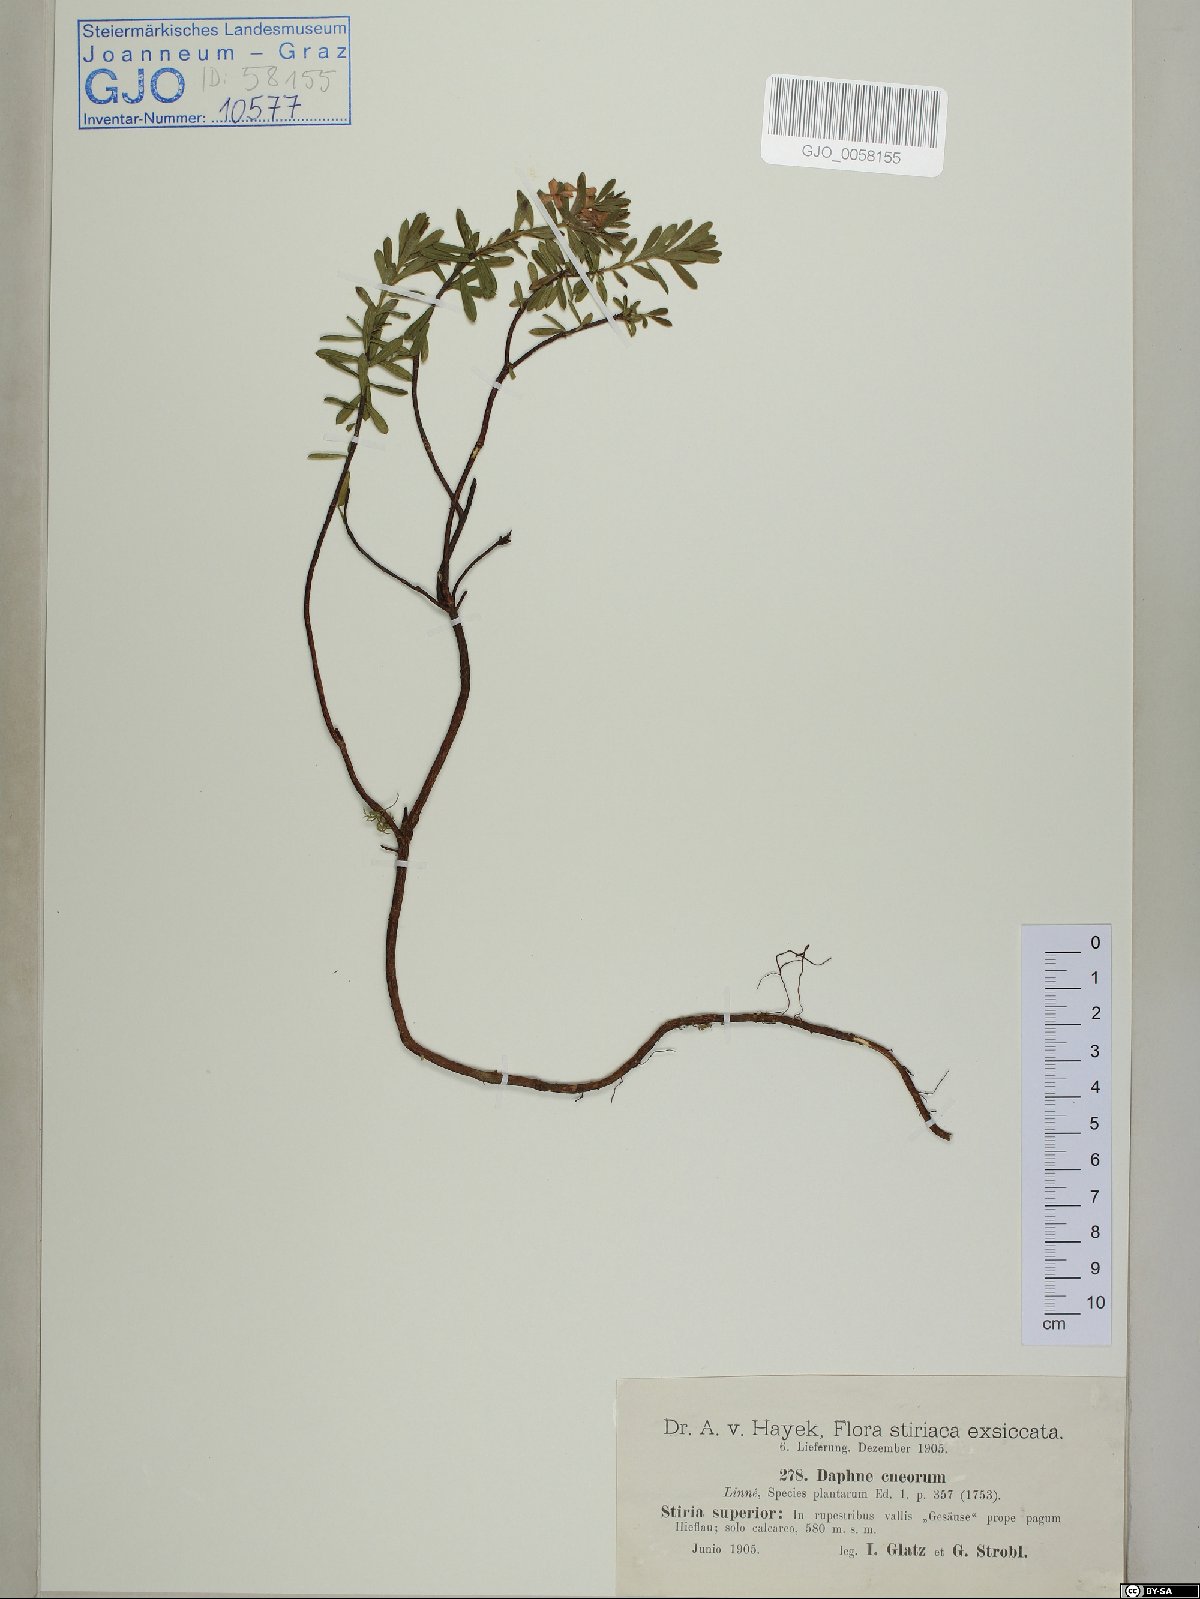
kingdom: Plantae
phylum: Tracheophyta
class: Magnoliopsida
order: Malvales
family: Thymelaeaceae
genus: Daphne
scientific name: Daphne cneorum
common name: Garland-flower
